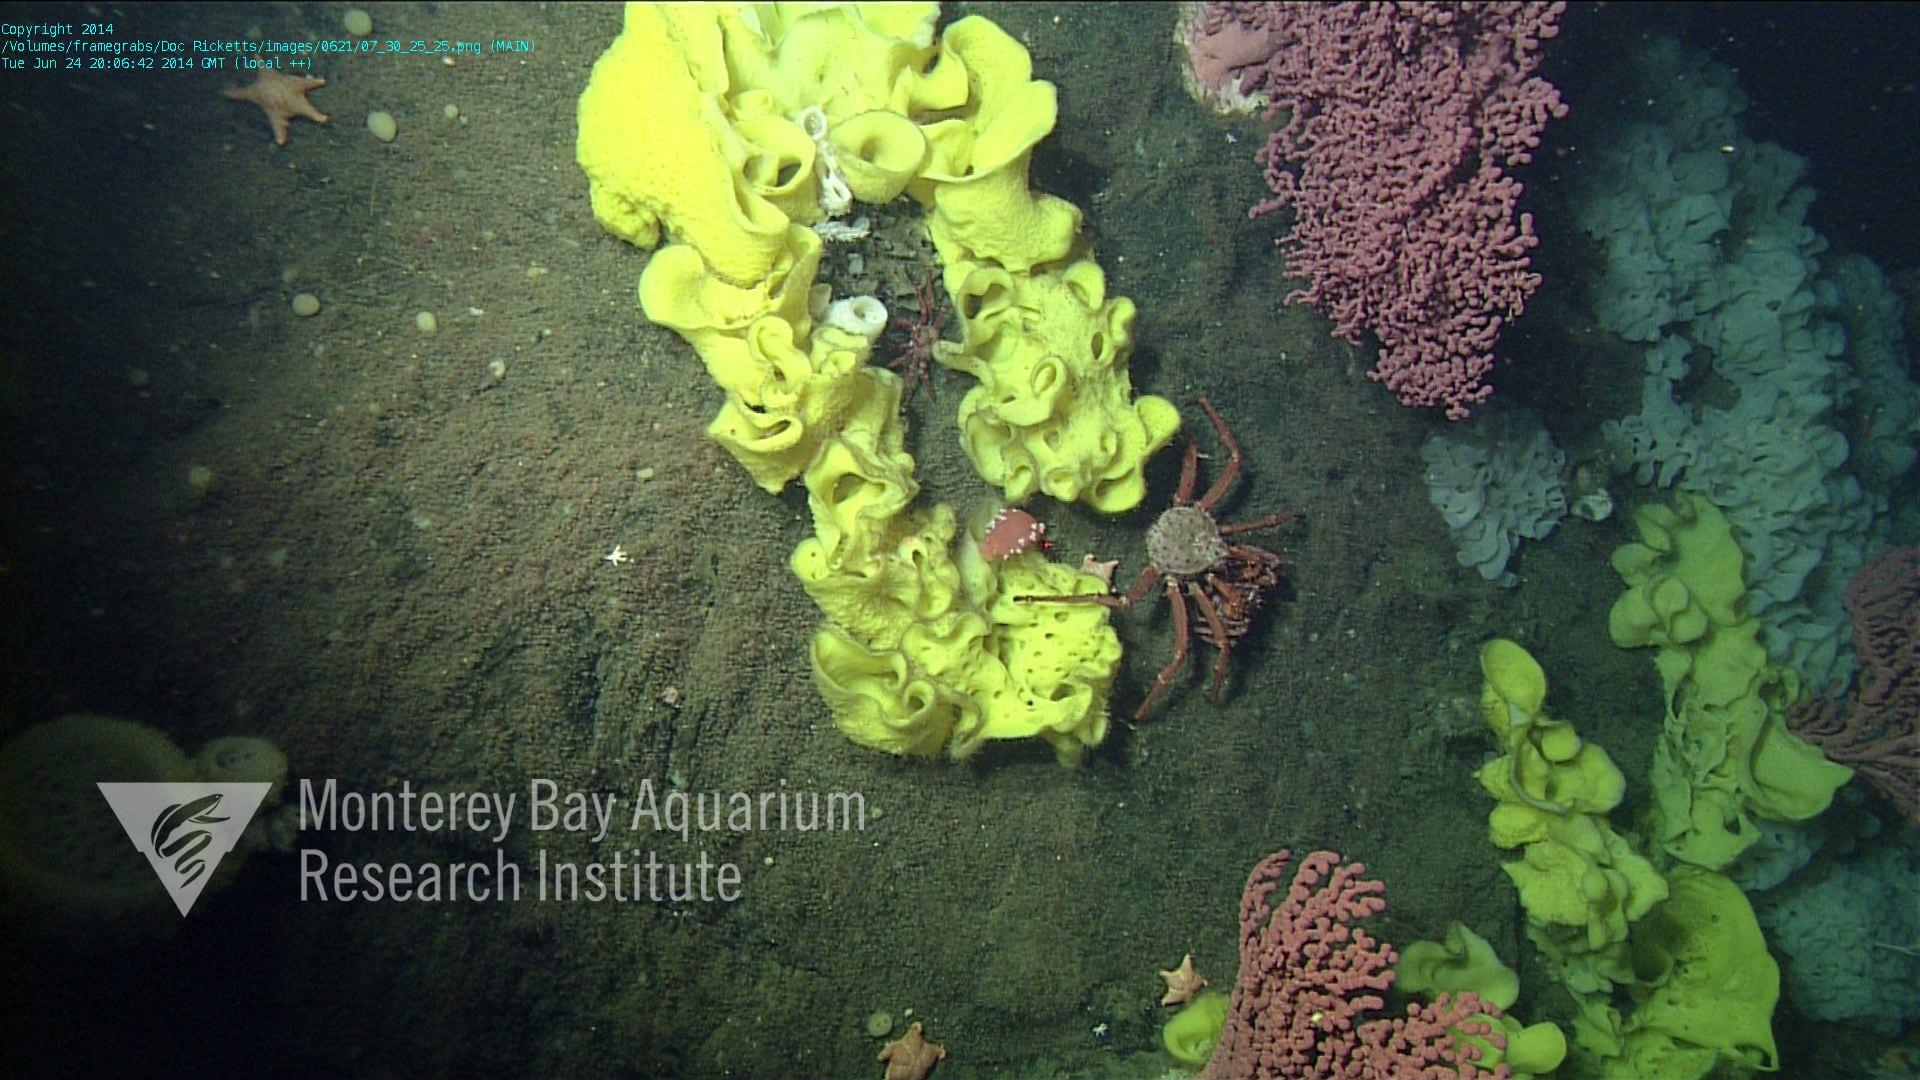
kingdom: Animalia
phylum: Cnidaria
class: Anthozoa
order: Scleralcyonacea
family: Coralliidae
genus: Paragorgia
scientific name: Paragorgia arborea
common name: Bubble gum coral
